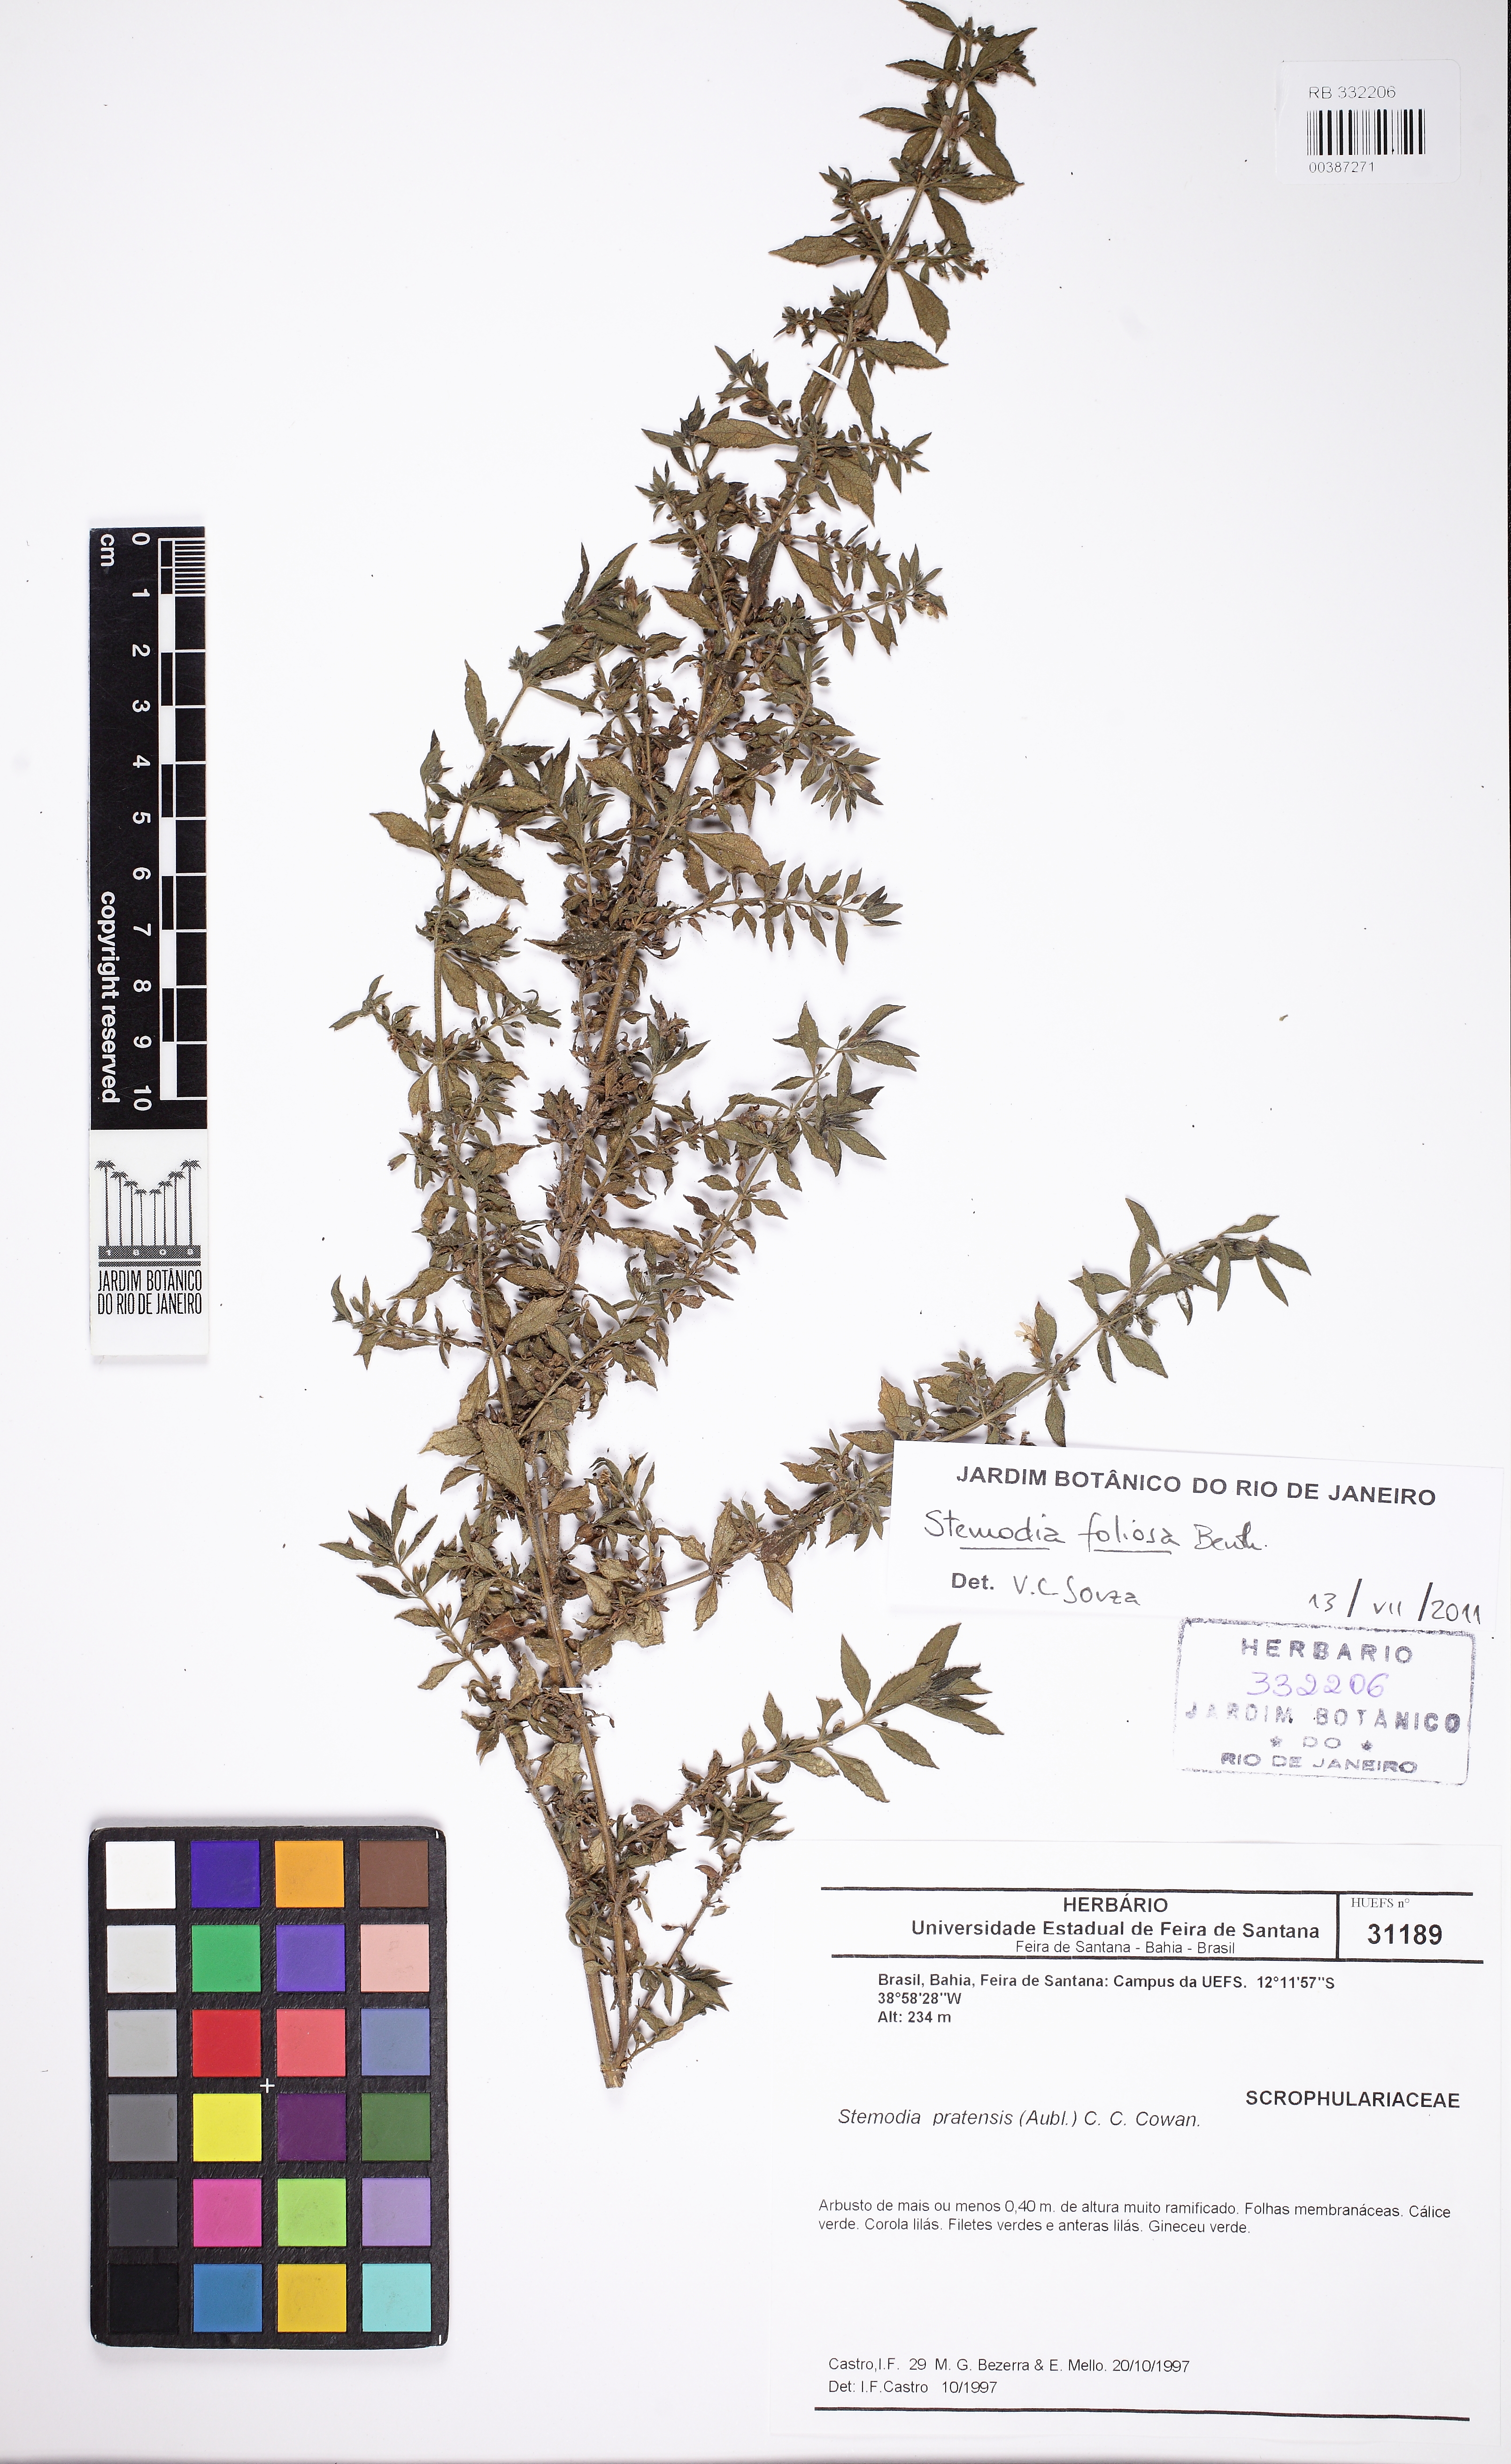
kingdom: Plantae
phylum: Tracheophyta
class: Magnoliopsida
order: Lamiales
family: Plantaginaceae
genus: Stemodia
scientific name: Stemodia foliosa
